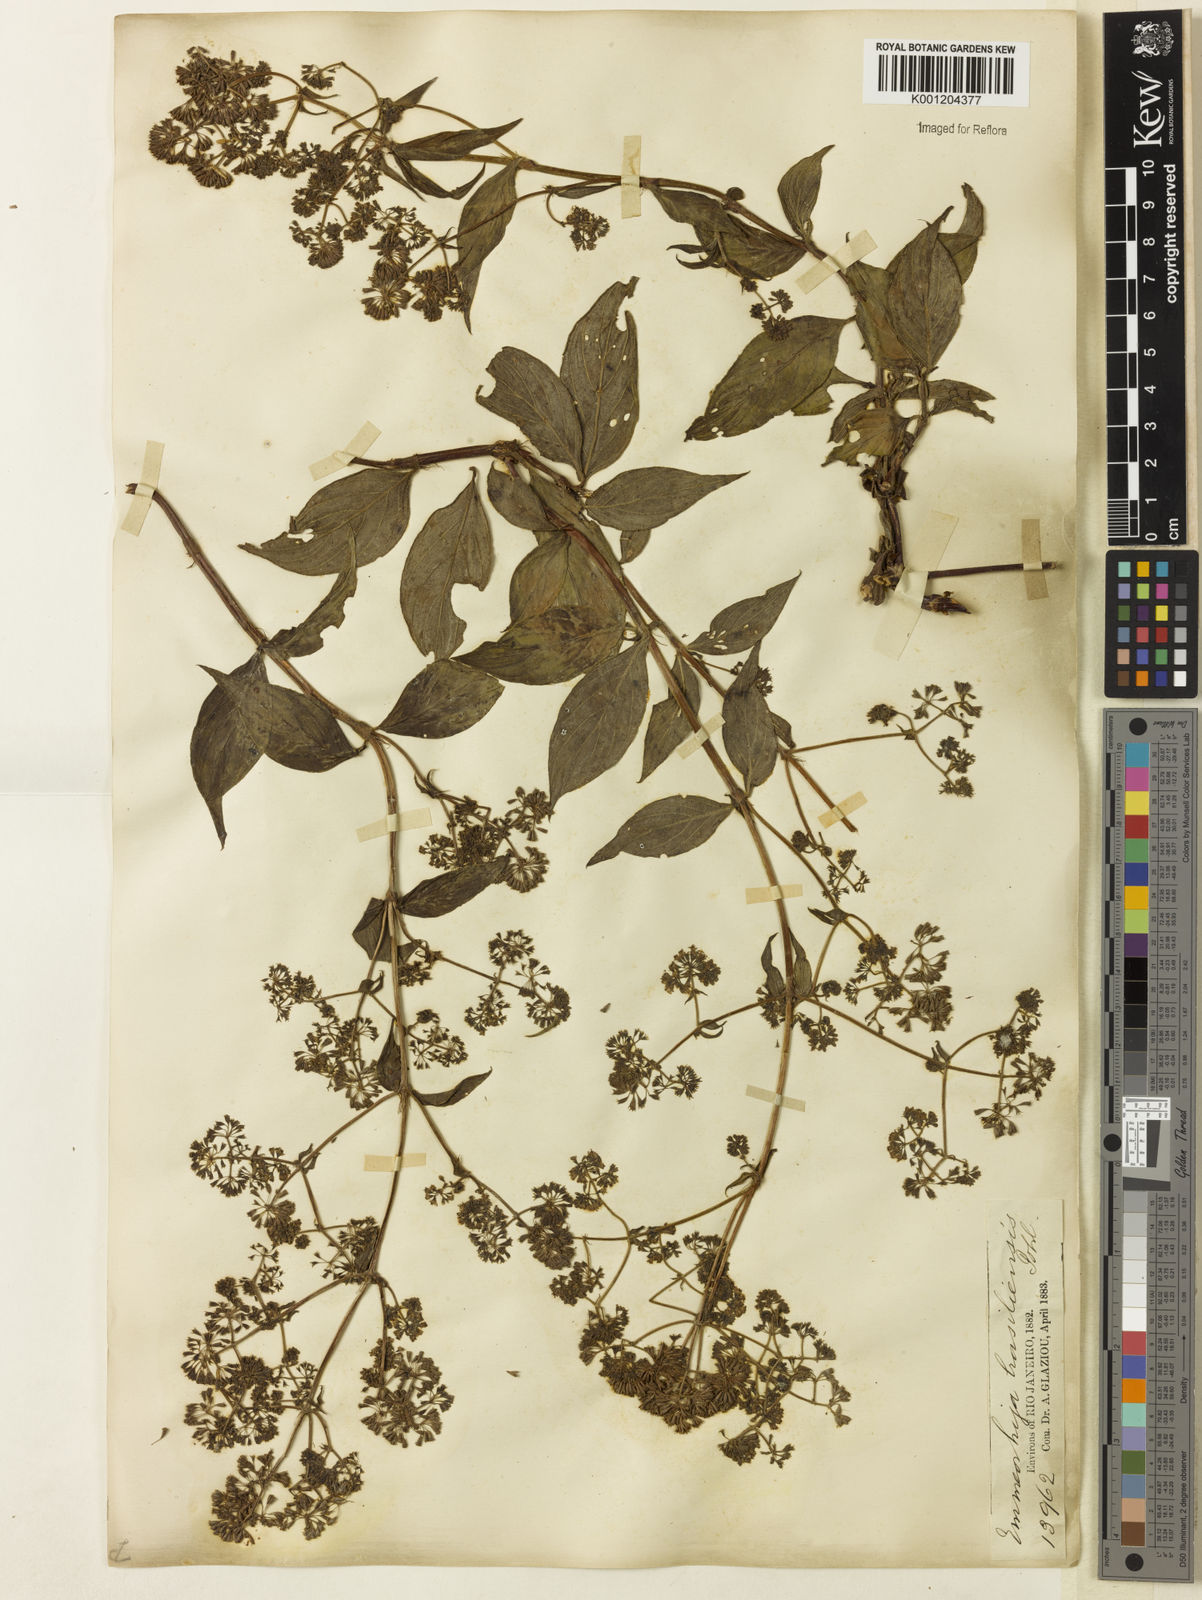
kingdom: Plantae
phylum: Tracheophyta
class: Magnoliopsida
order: Gentianales
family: Rubiaceae
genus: Emmeorhiza
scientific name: Emmeorhiza umbellata
